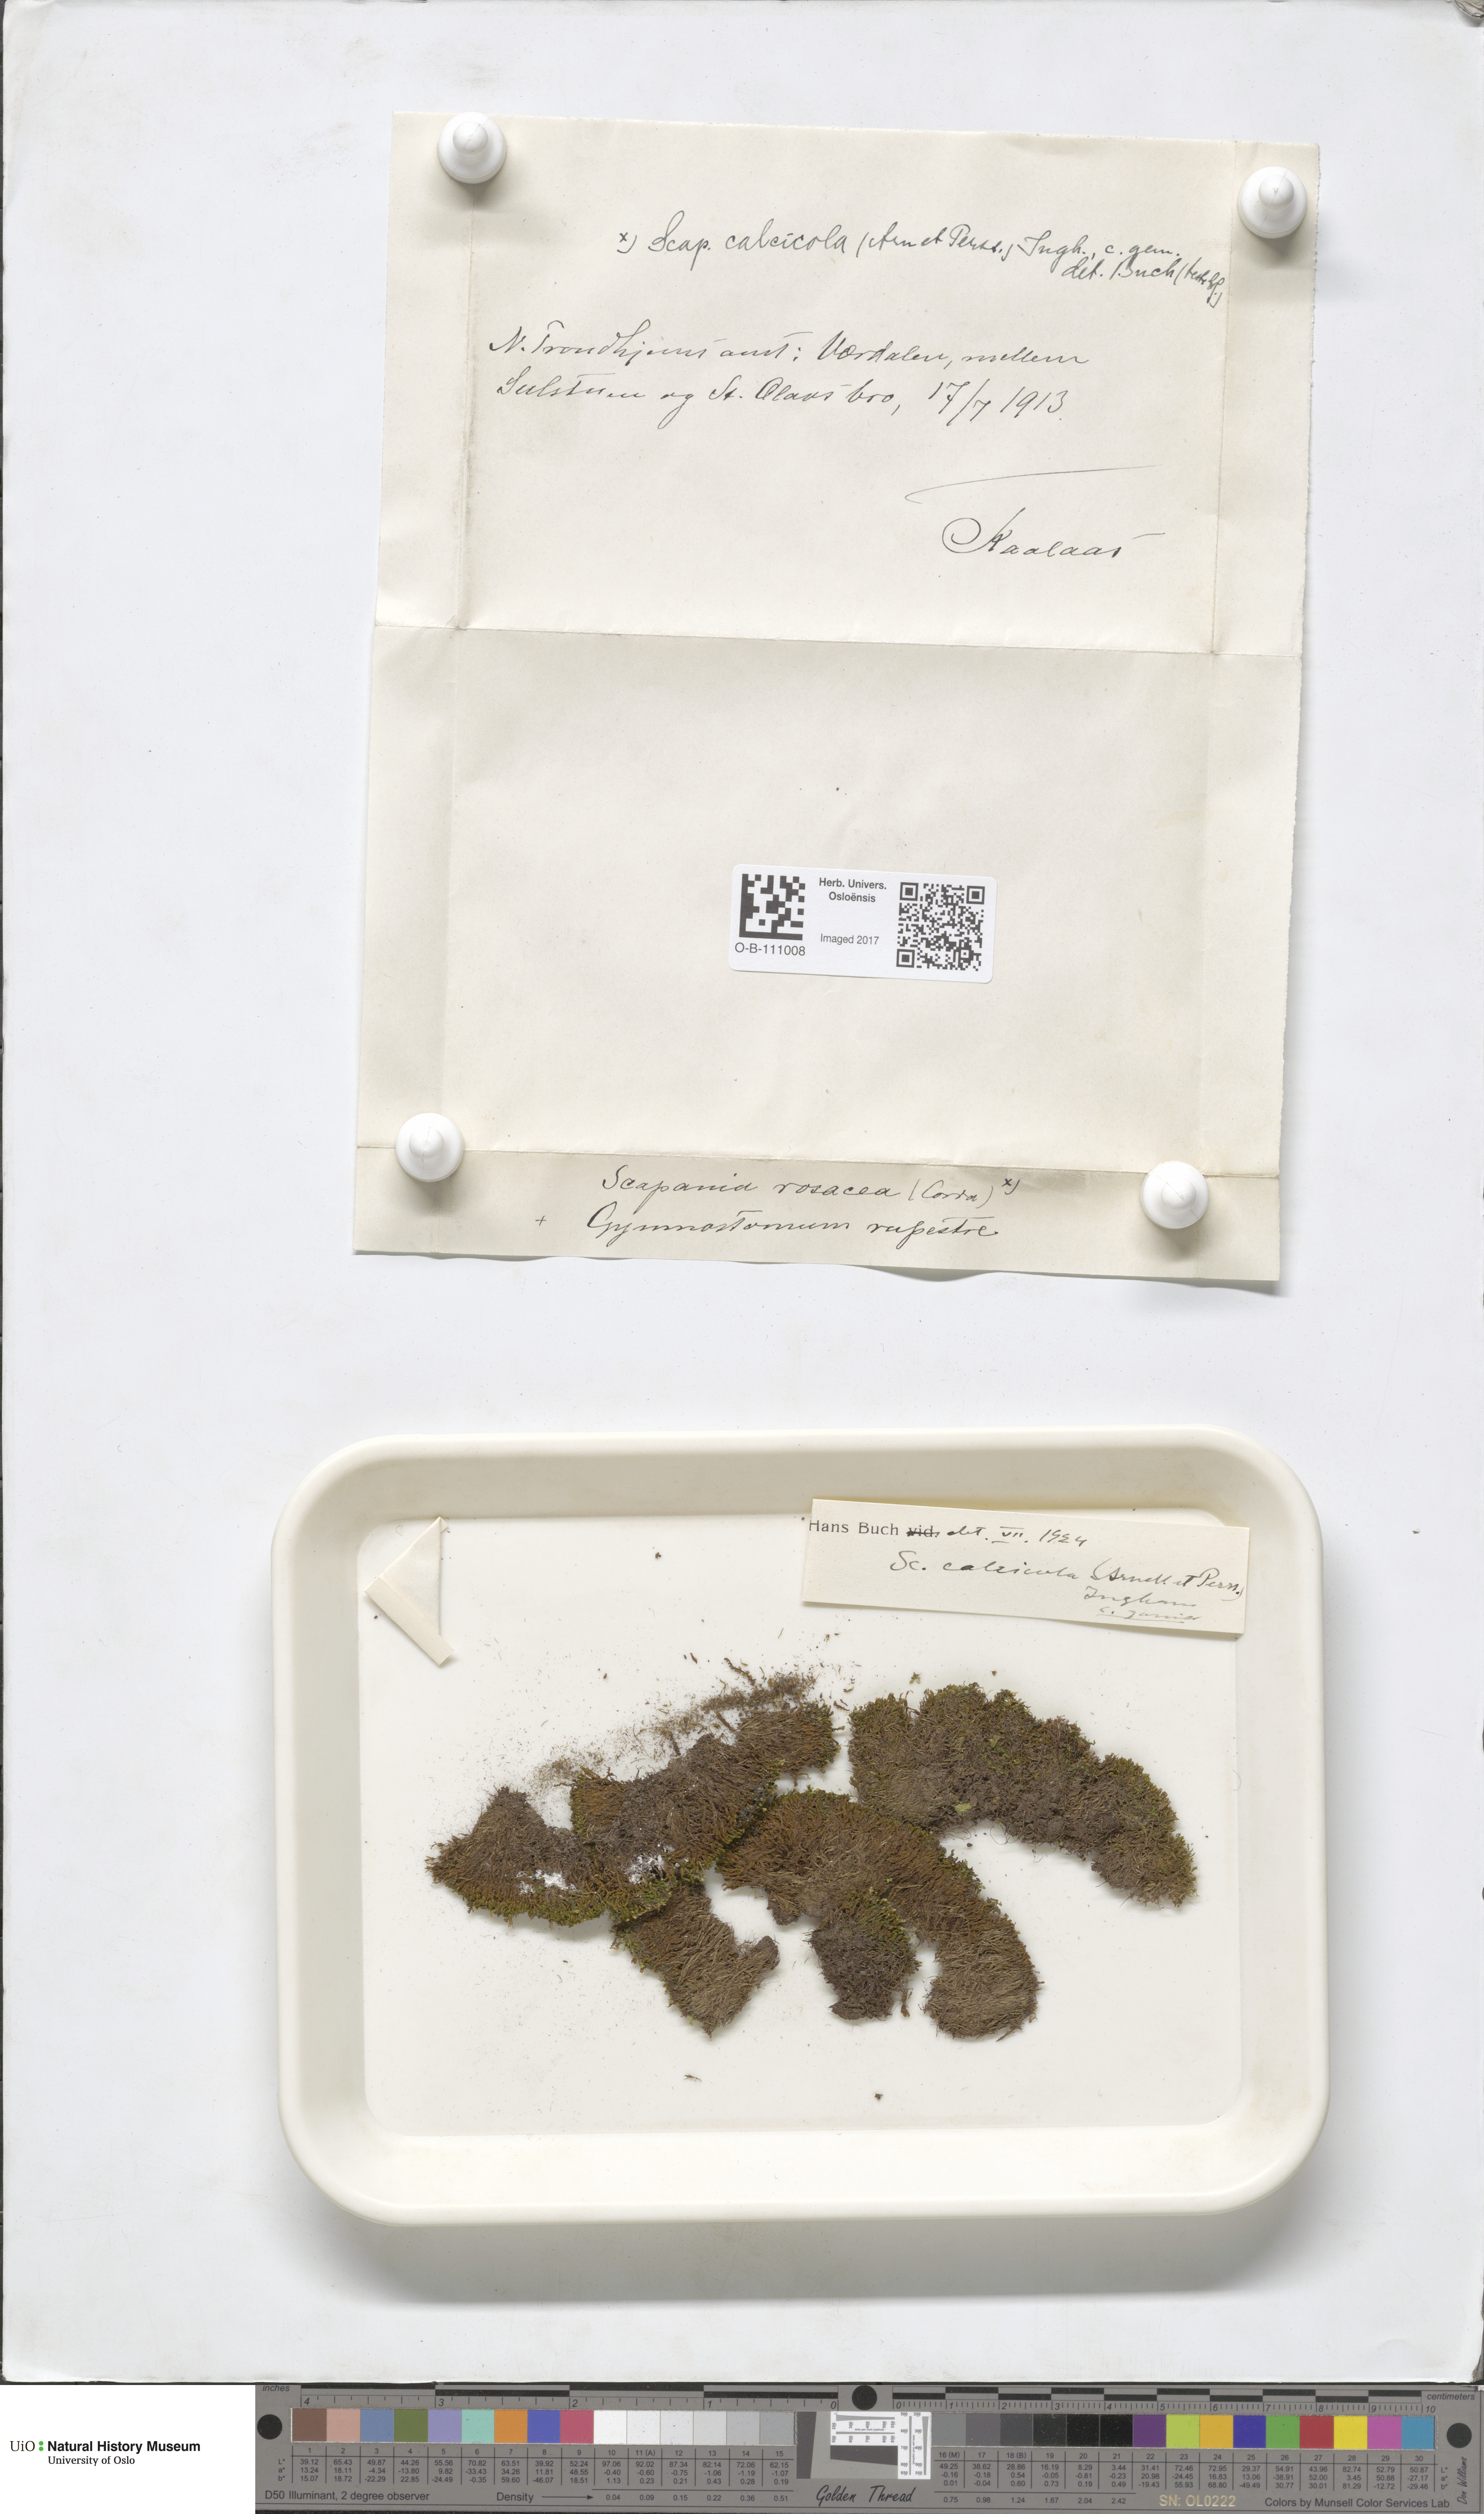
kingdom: Plantae
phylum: Marchantiophyta
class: Jungermanniopsida
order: Jungermanniales
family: Scapaniaceae
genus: Scapania
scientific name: Scapania calcicola
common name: Calcicolous earwort
